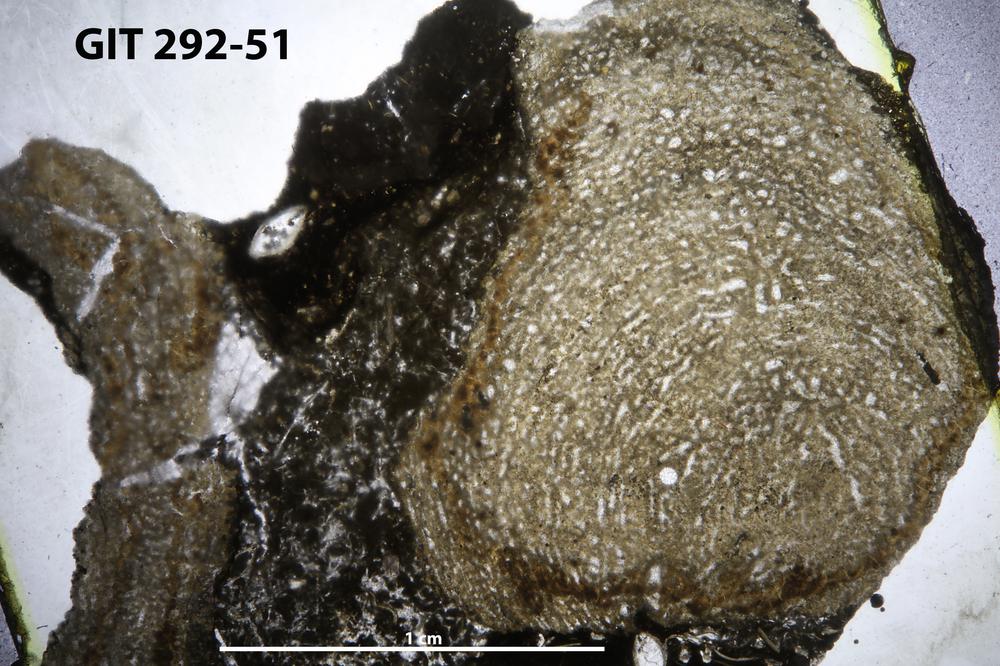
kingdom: Animalia
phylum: Porifera
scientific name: Porifera
